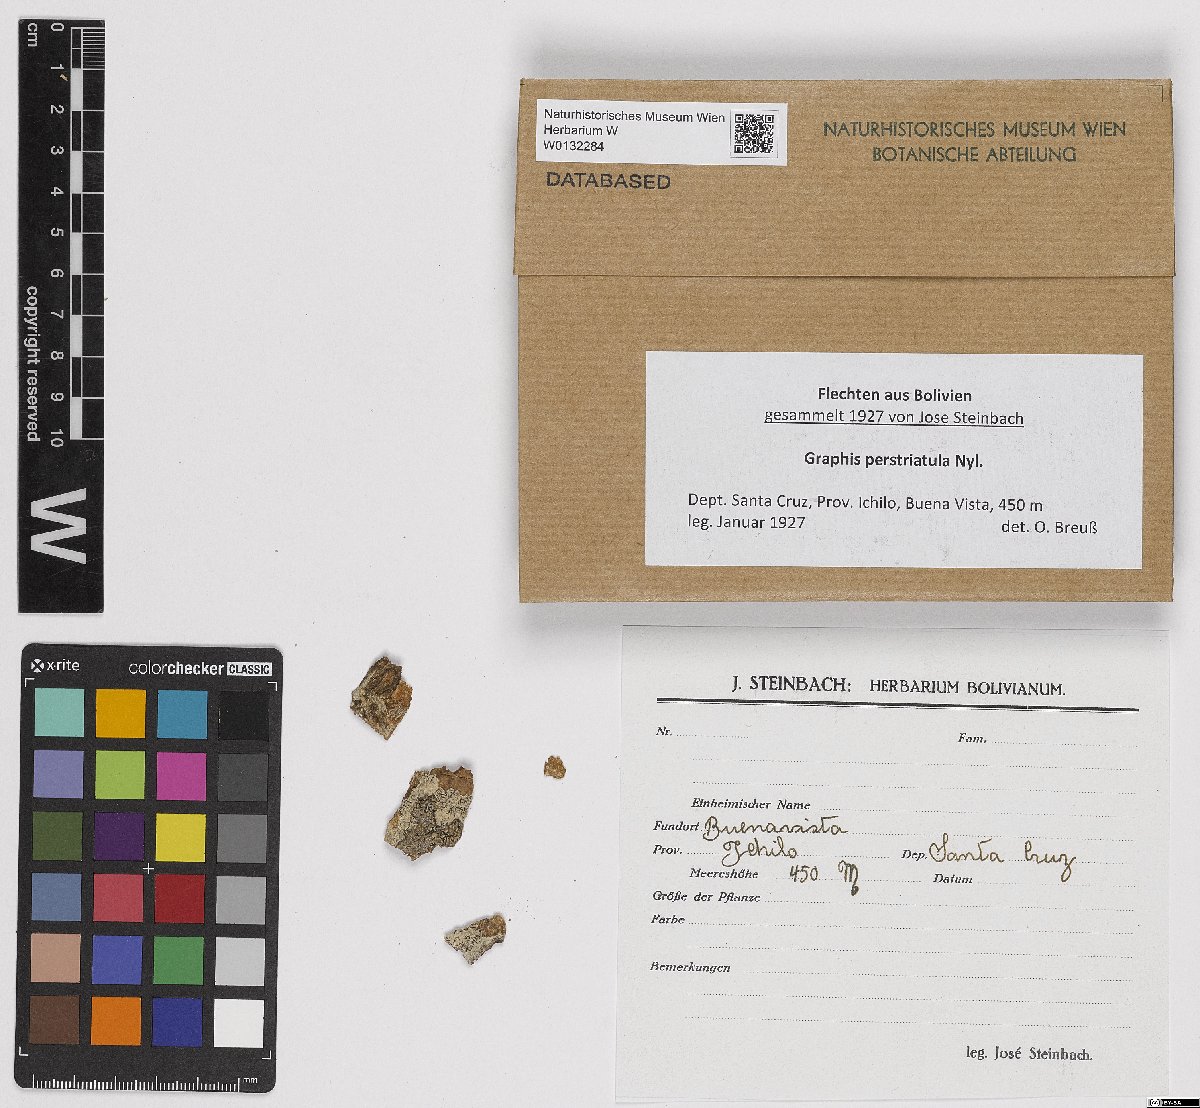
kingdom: Fungi
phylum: Ascomycota
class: Lecanoromycetes
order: Ostropales
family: Graphidaceae
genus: Graphis
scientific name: Graphis
